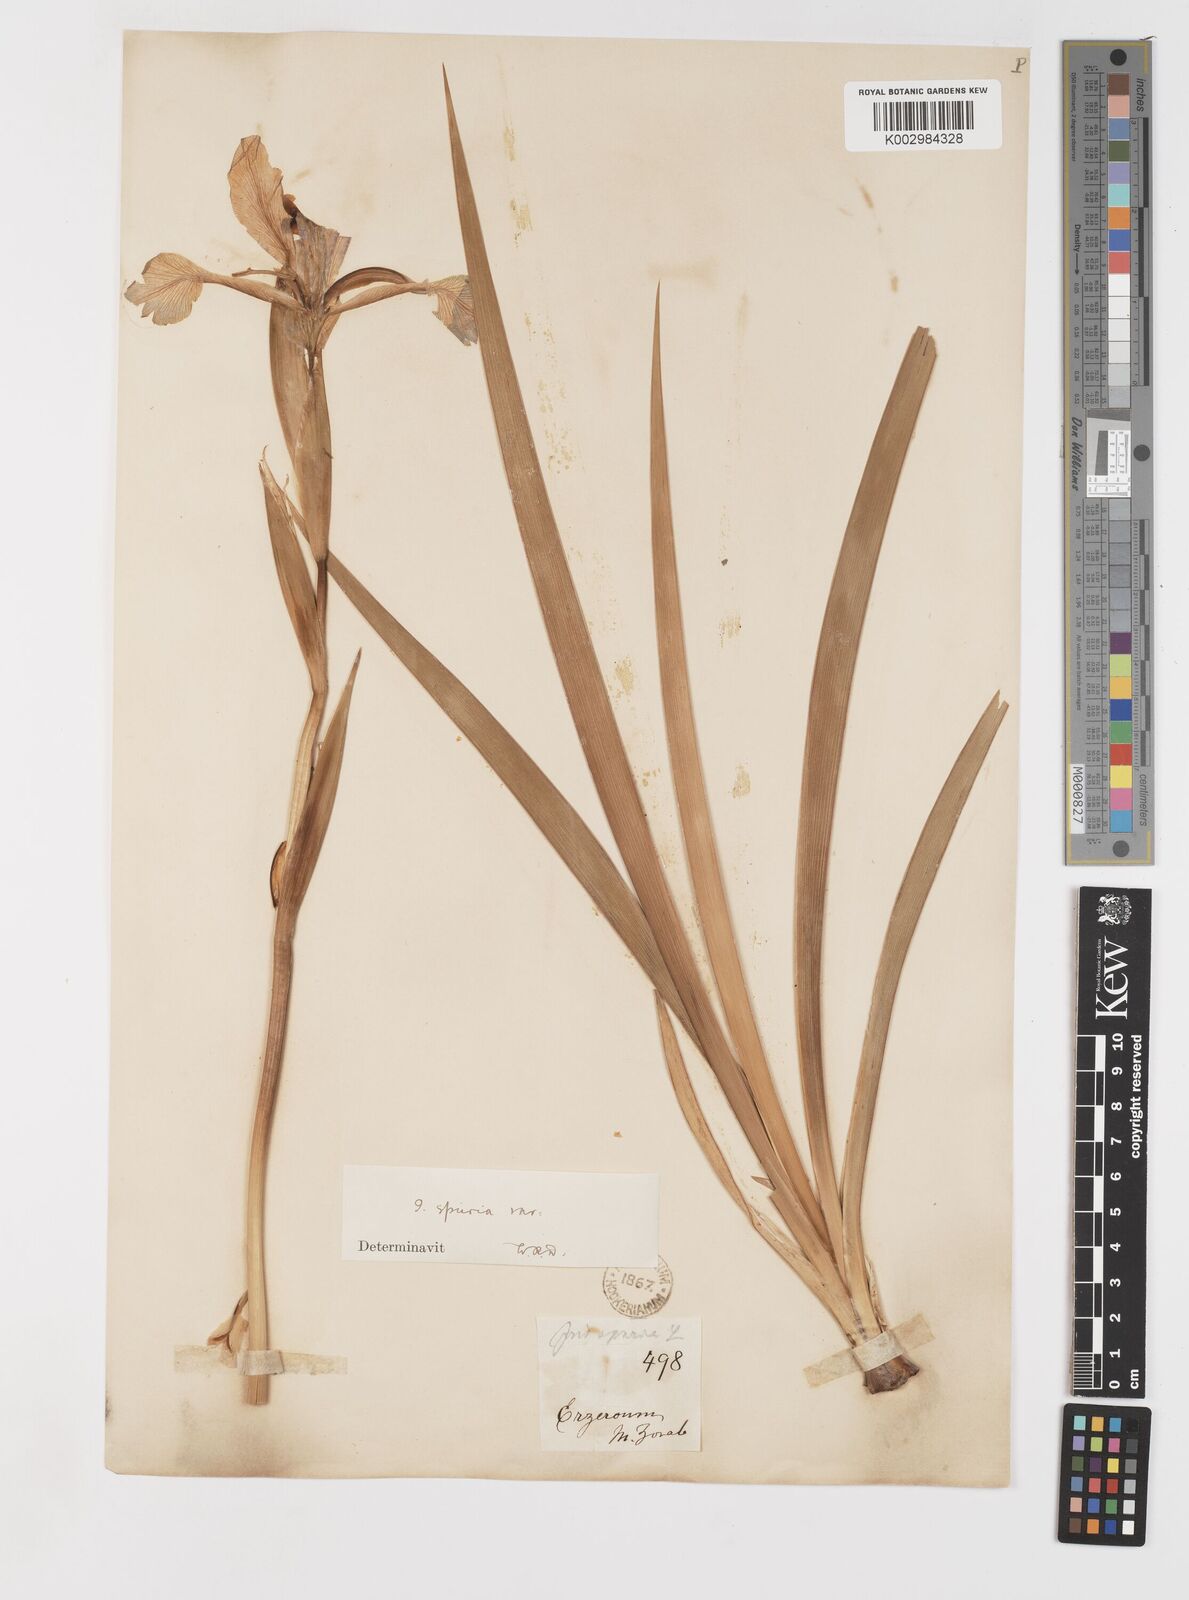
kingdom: Plantae
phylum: Tracheophyta
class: Liliopsida
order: Asparagales
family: Iridaceae
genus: Iris
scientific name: Iris spuria
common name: Blue iris
